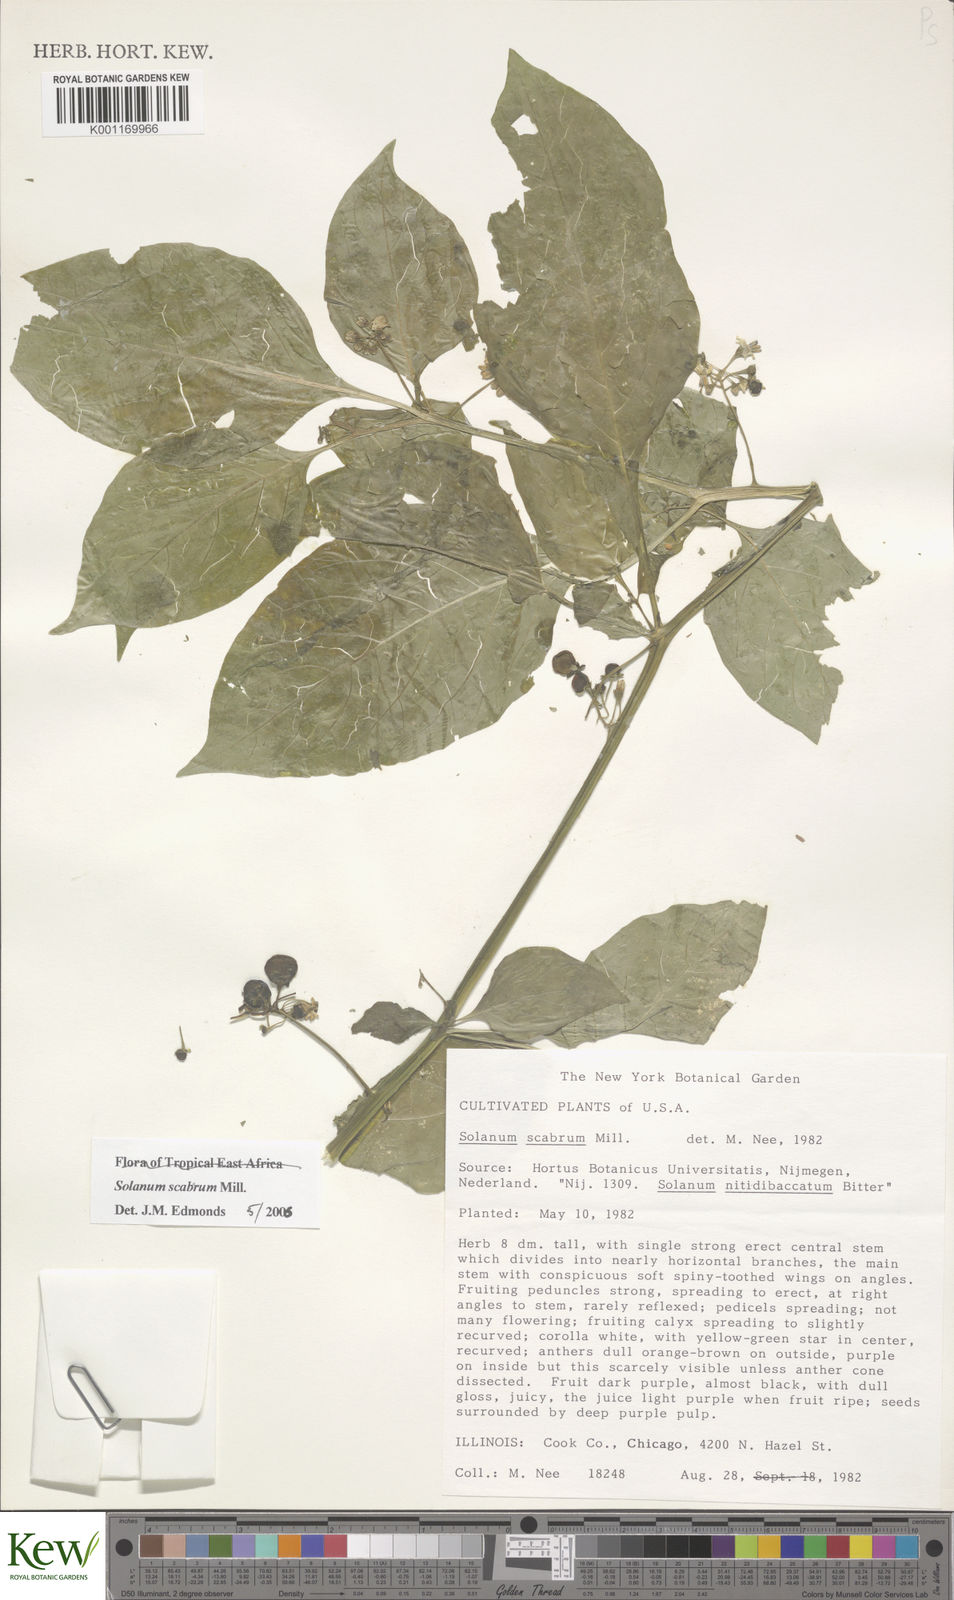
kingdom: Plantae
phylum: Tracheophyta
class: Magnoliopsida
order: Solanales
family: Solanaceae
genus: Solanum
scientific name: Solanum scabrum
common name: Garden-huckleberry
